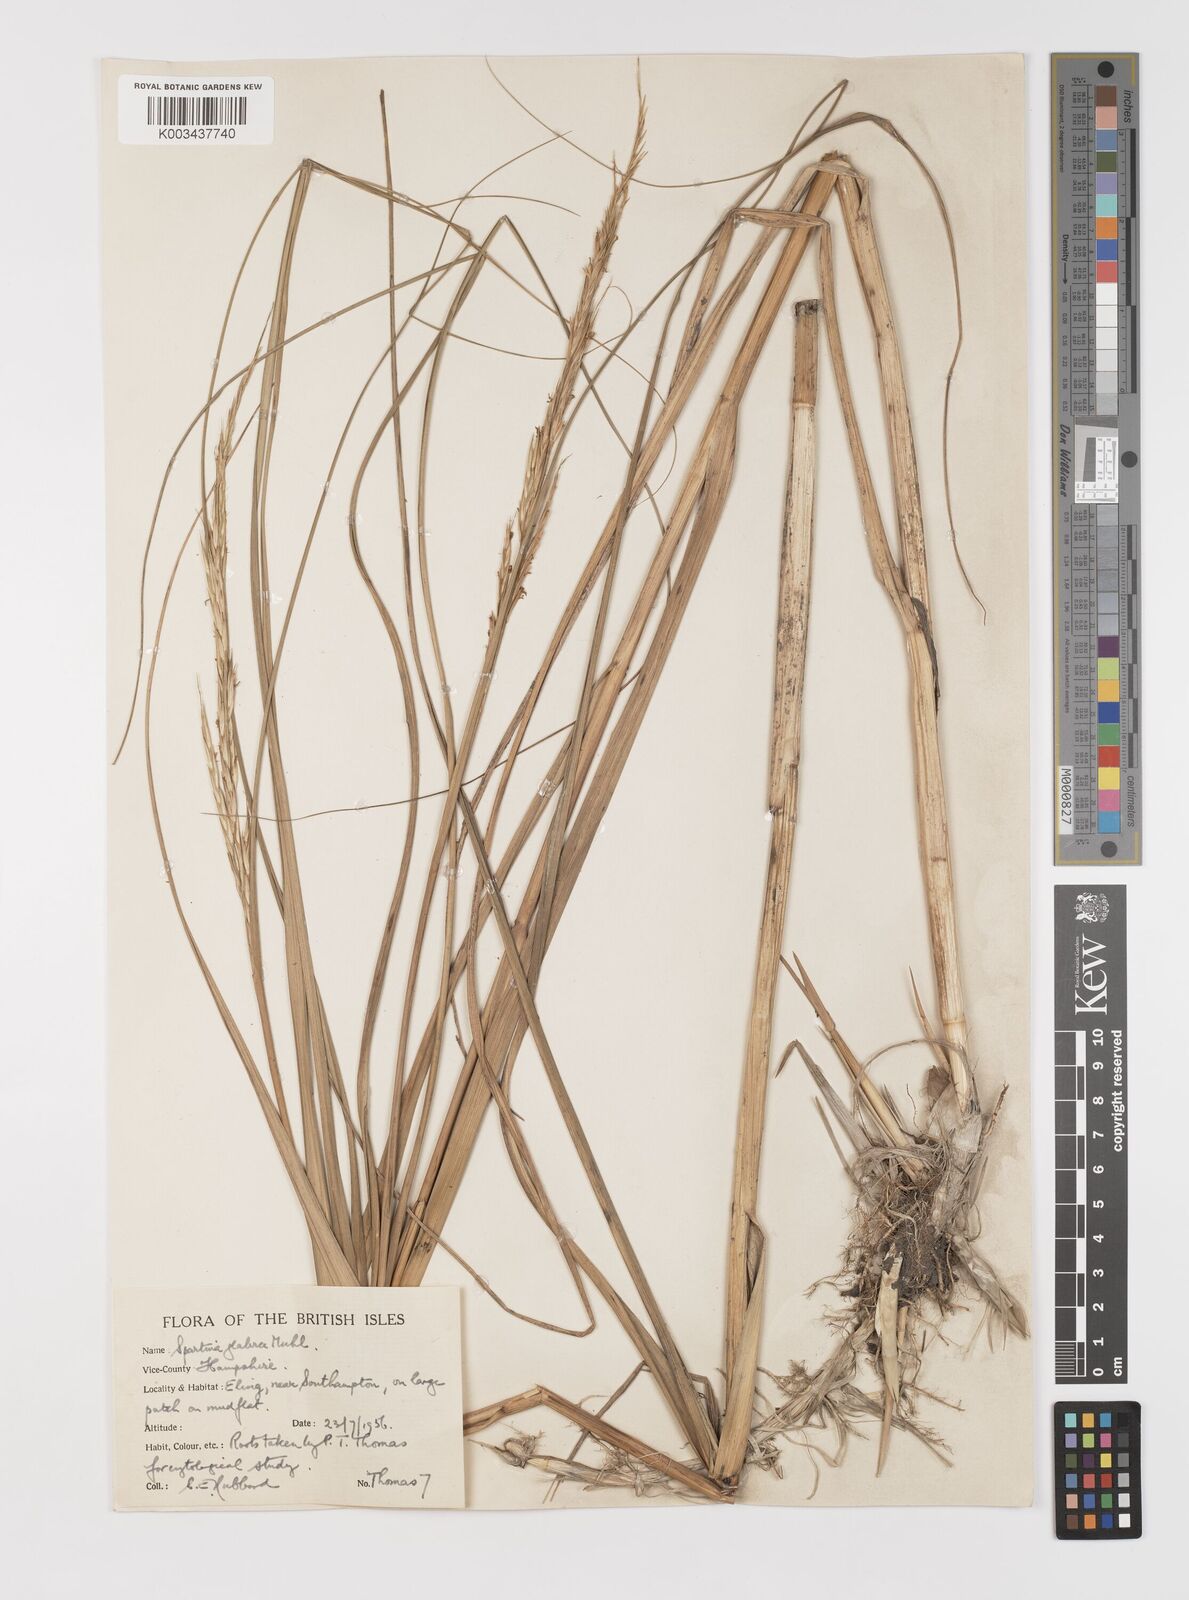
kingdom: Plantae
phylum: Tracheophyta
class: Liliopsida
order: Poales
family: Poaceae
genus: Sporobolus
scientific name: Sporobolus alterniflorus
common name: Atlantic cordgrass
